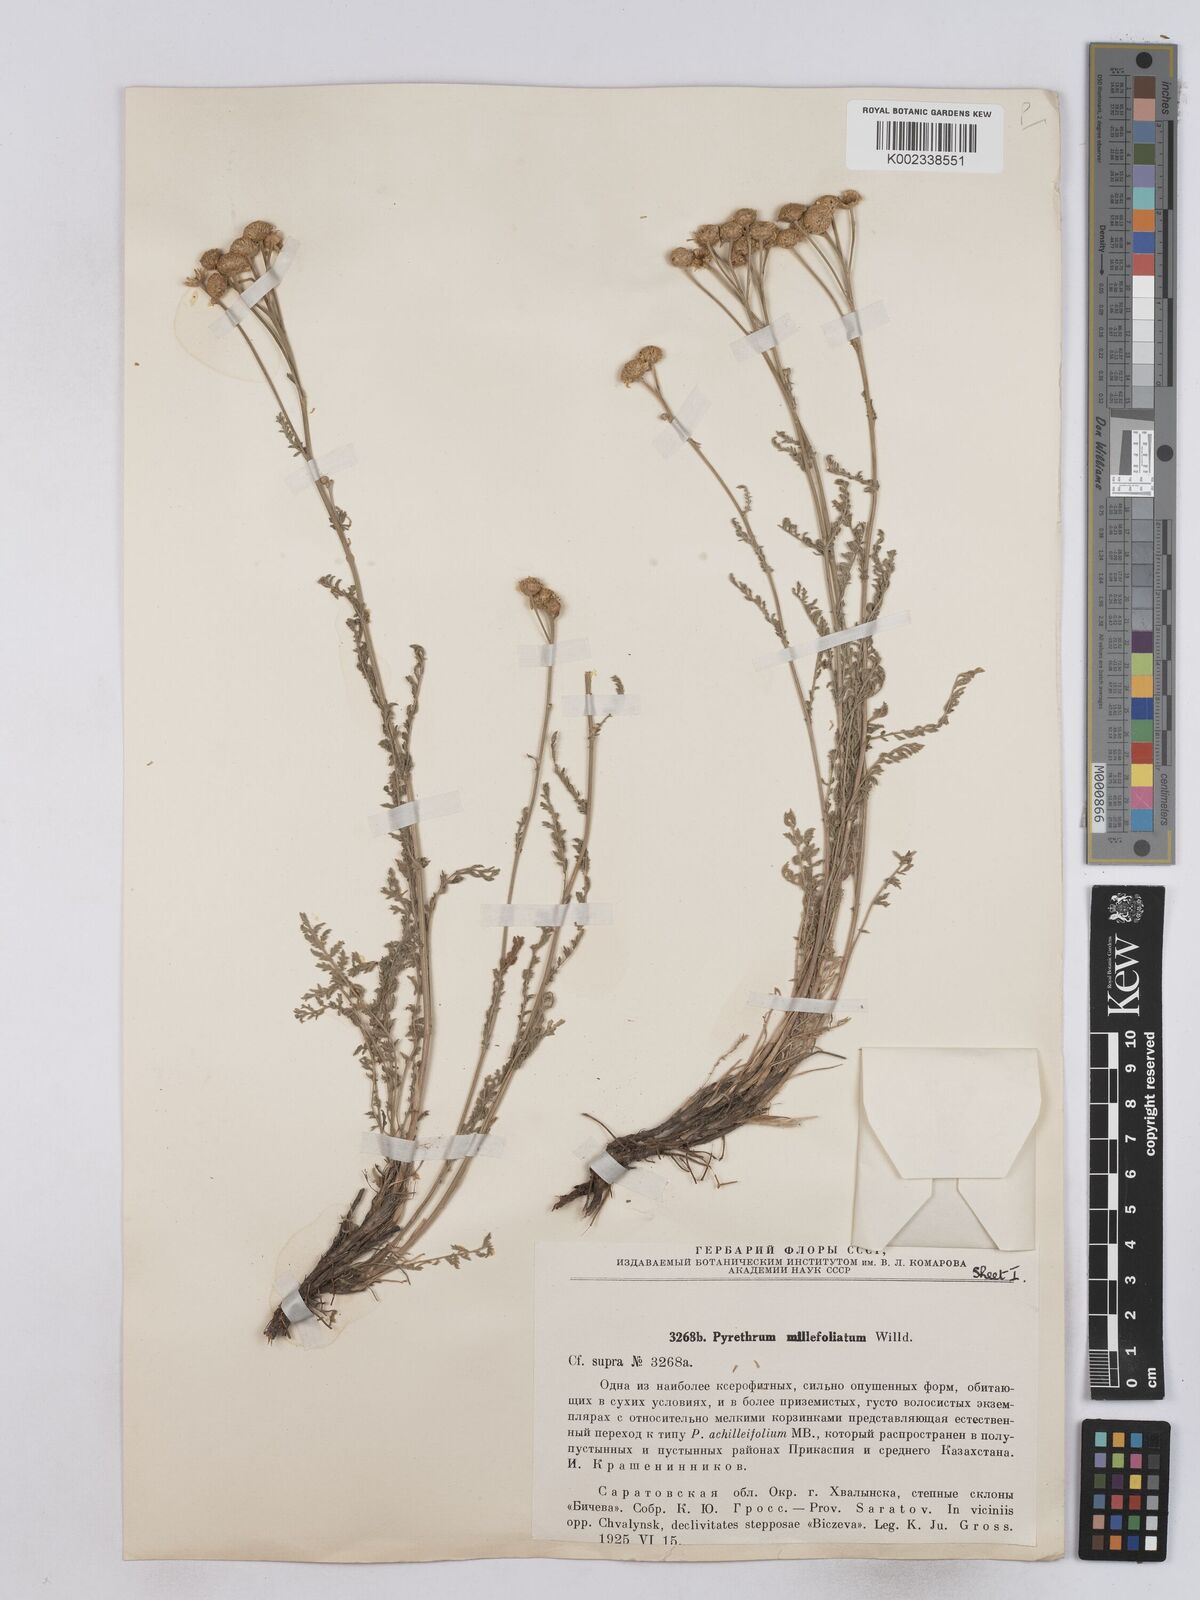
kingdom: Plantae
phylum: Tracheophyta
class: Magnoliopsida
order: Asterales
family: Asteraceae
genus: Tanacetum
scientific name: Tanacetum millefolium
